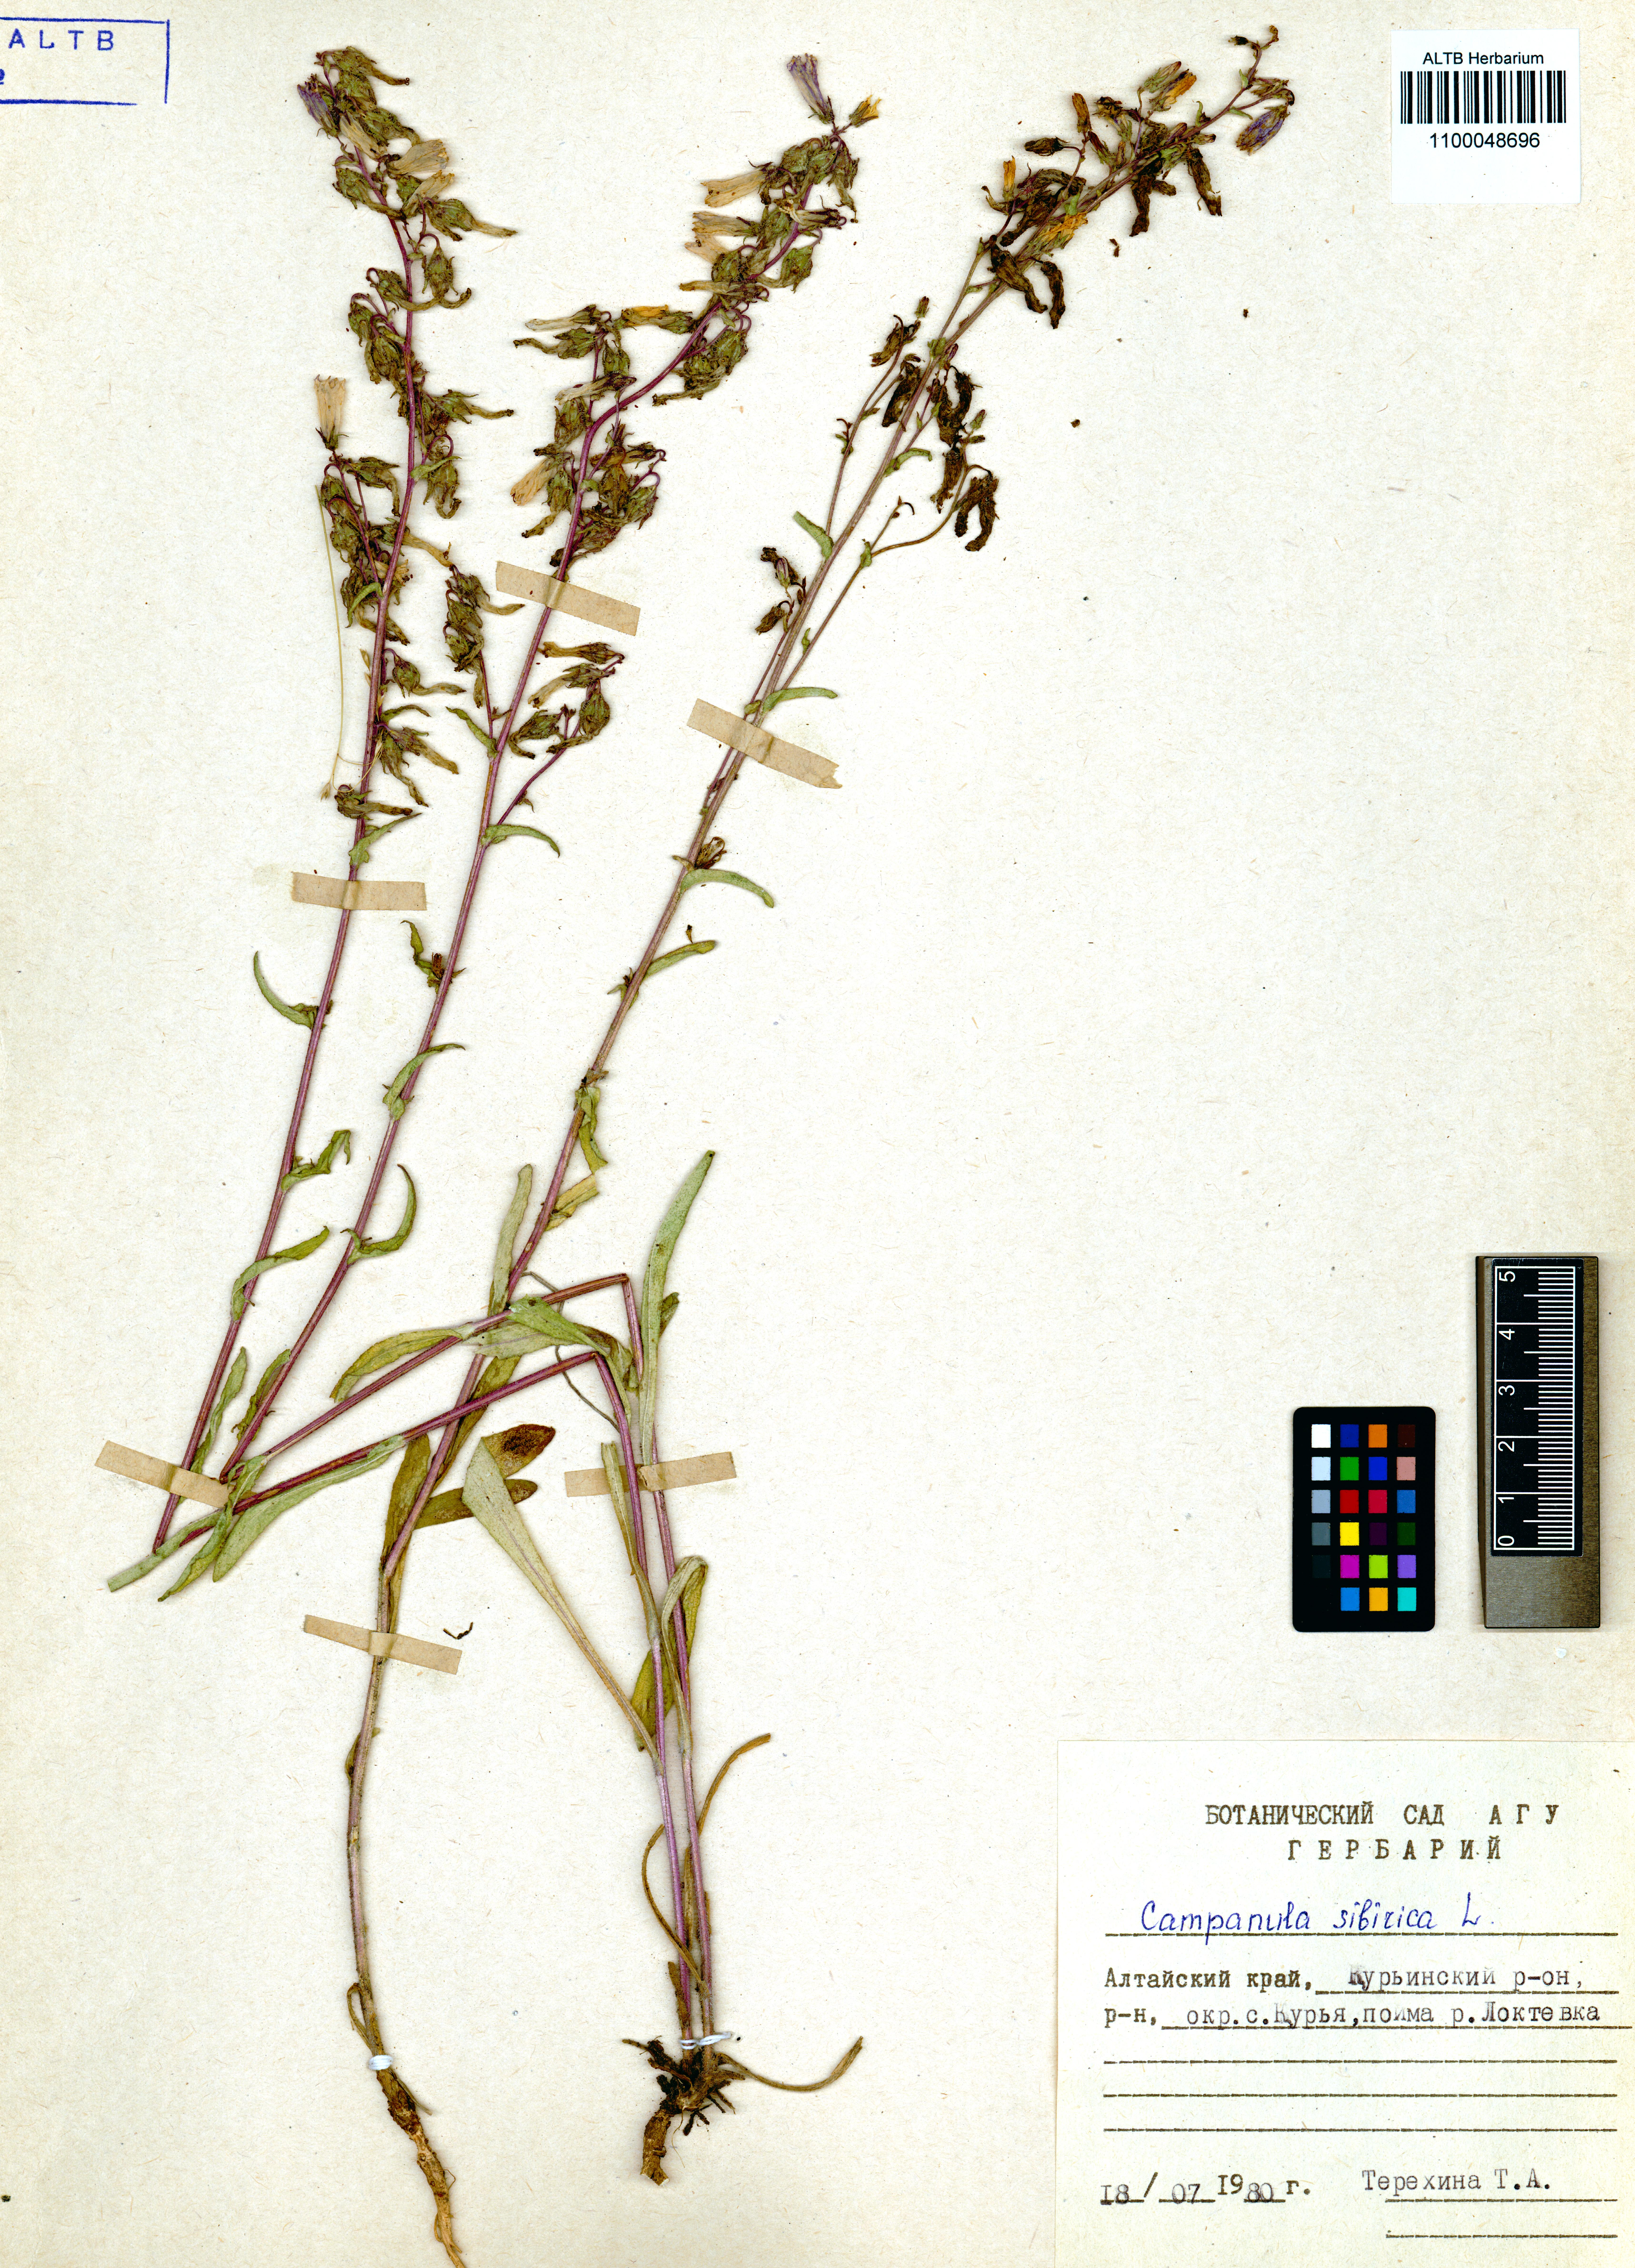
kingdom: Plantae
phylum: Tracheophyta
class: Magnoliopsida
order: Asterales
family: Campanulaceae
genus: Campanula
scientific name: Campanula sibirica
